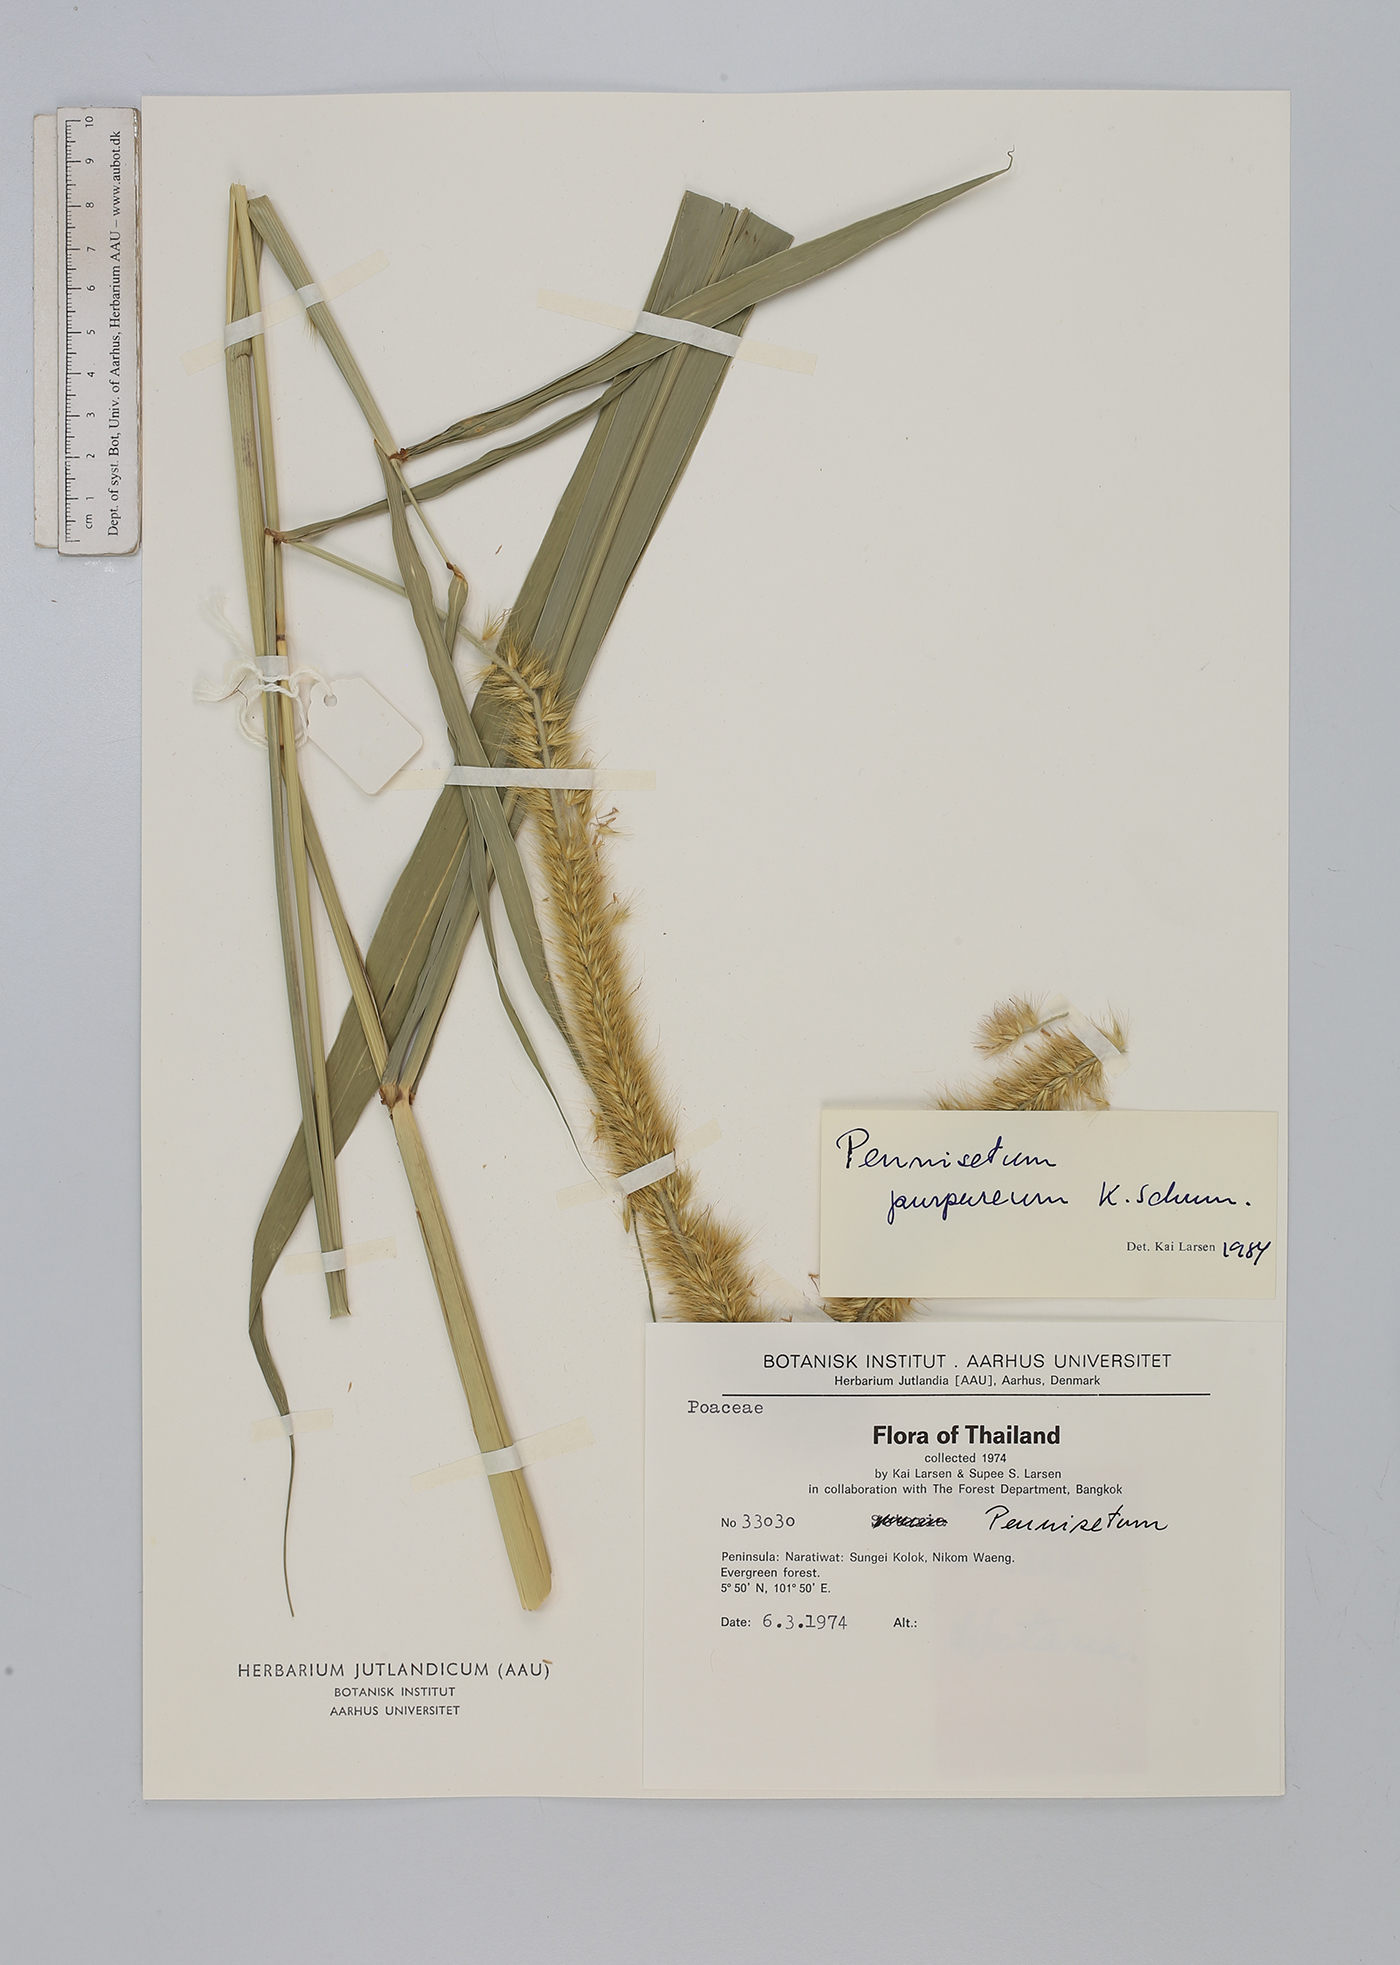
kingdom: Plantae
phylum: Tracheophyta
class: Liliopsida
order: Poales
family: Poaceae
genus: Cenchrus
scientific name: Cenchrus purpureus
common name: Elephant grass
